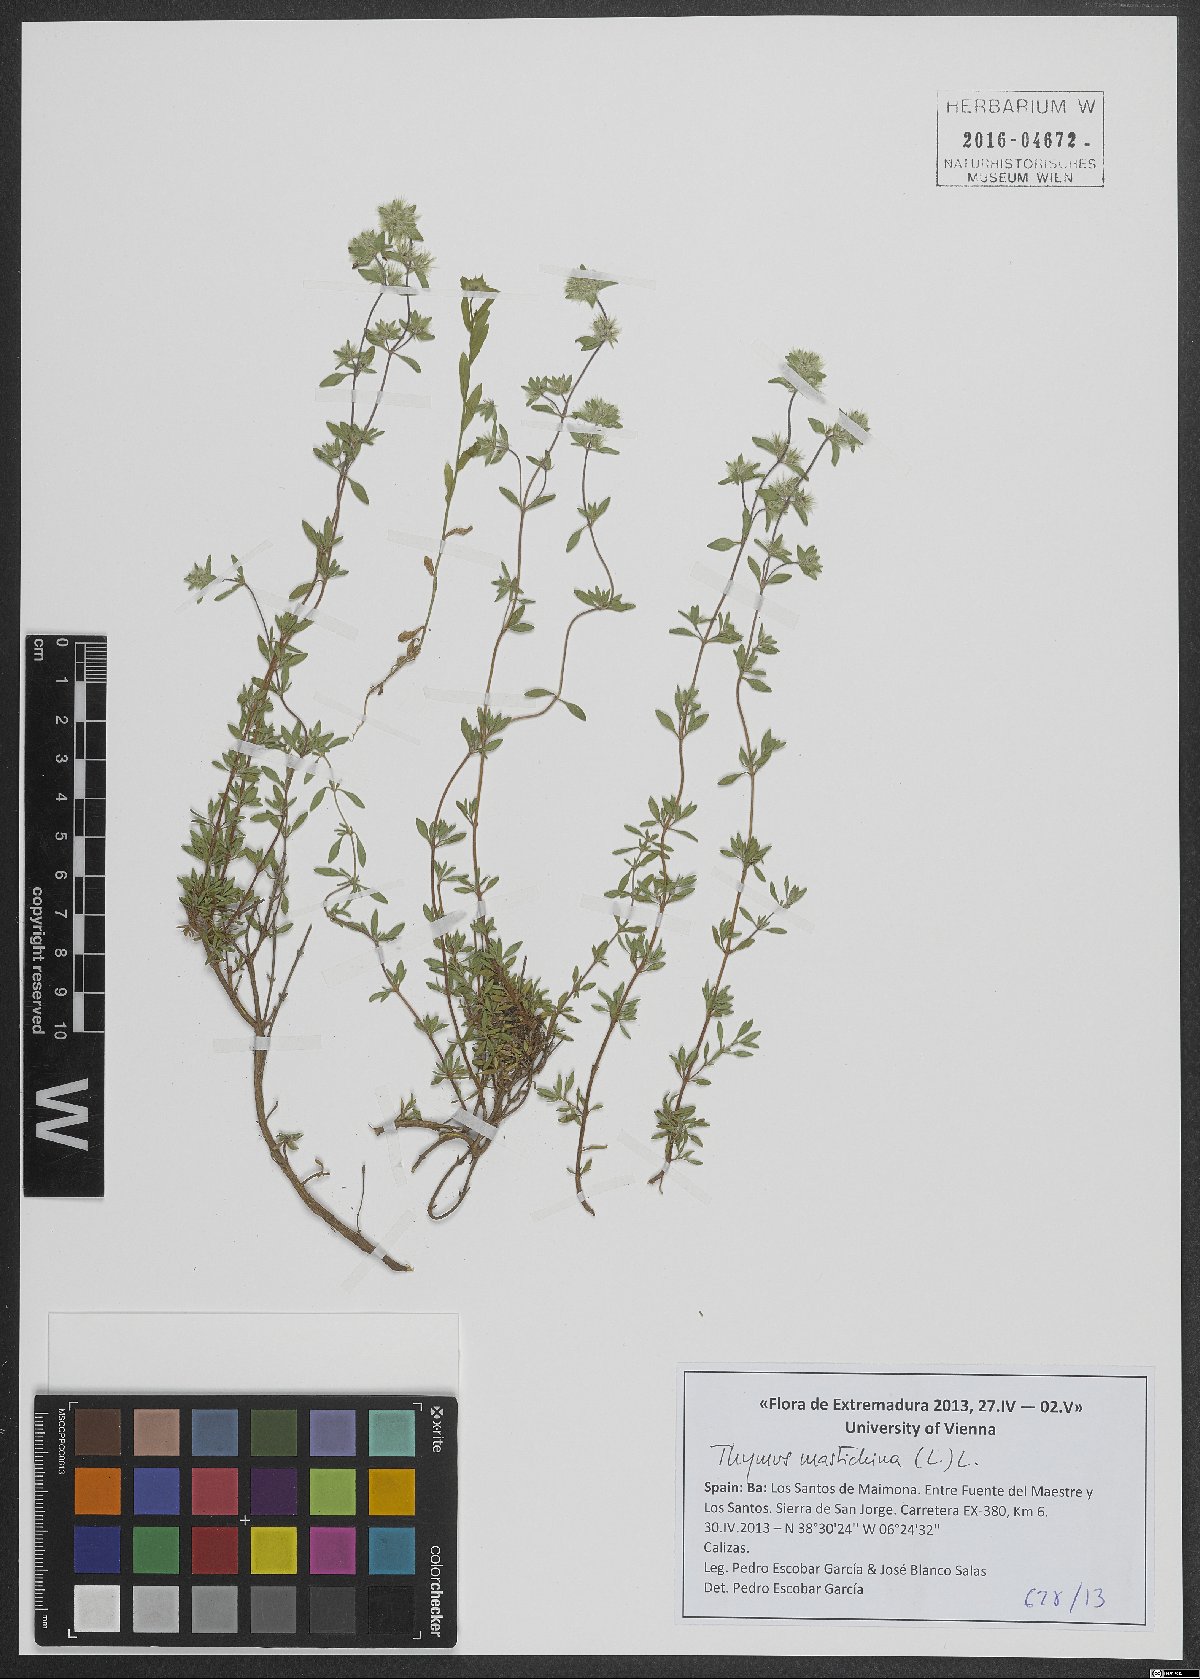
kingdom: Plantae
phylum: Tracheophyta
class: Magnoliopsida
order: Lamiales
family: Lamiaceae
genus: Thymus
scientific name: Thymus mastichina
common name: Mastic thyme
